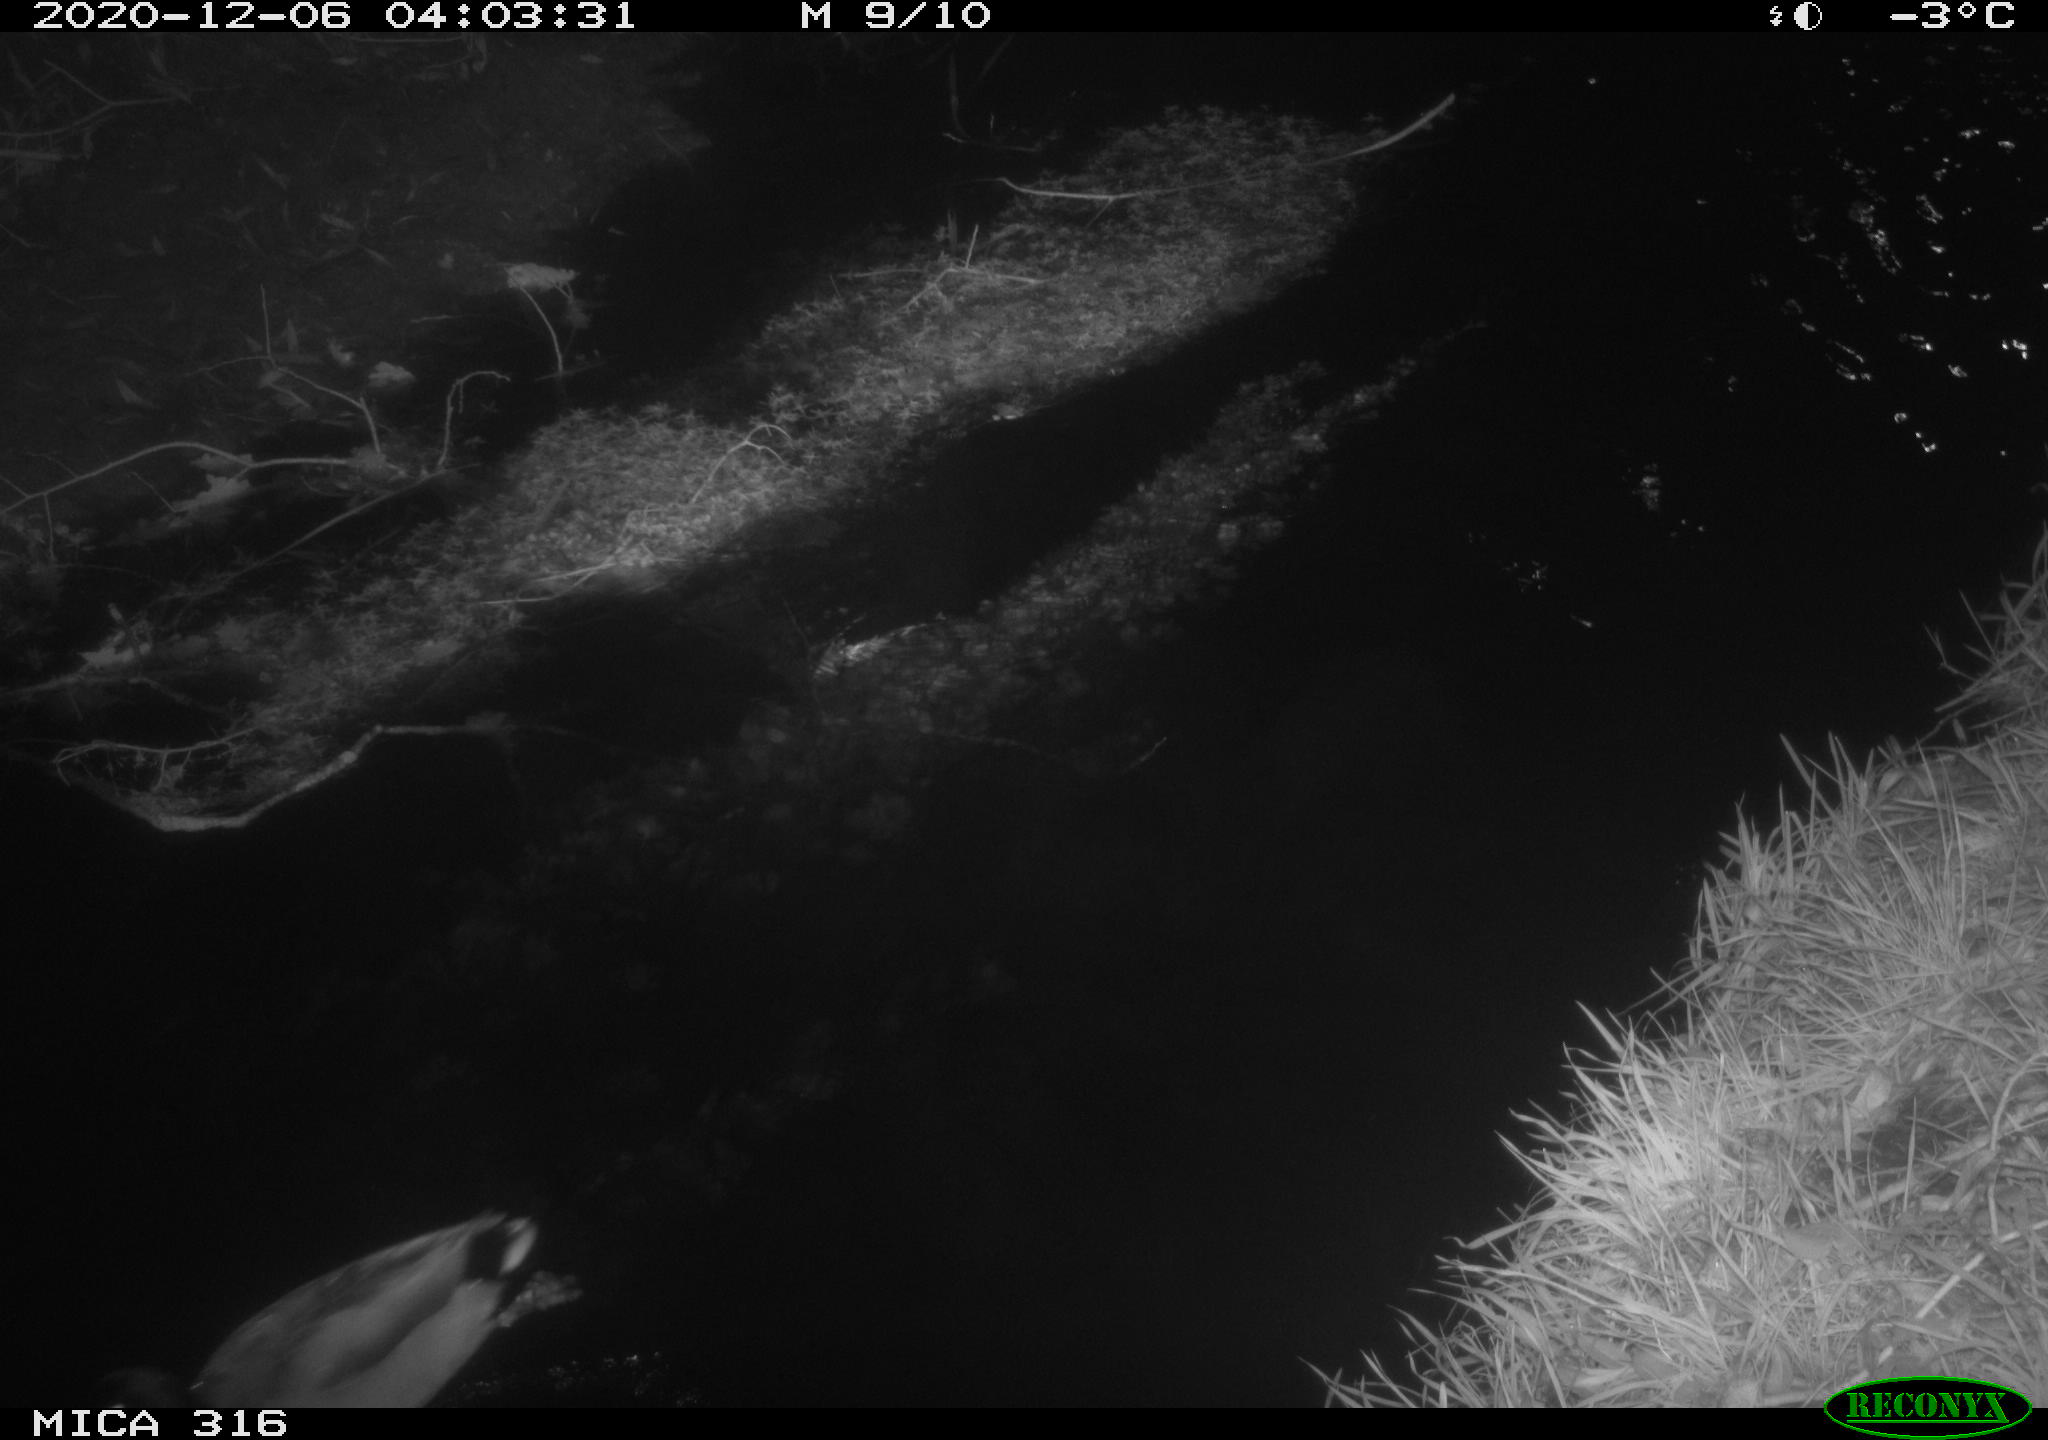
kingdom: Animalia
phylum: Chordata
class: Aves
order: Anseriformes
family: Anatidae
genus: Anas
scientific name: Anas platyrhynchos
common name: Mallard
